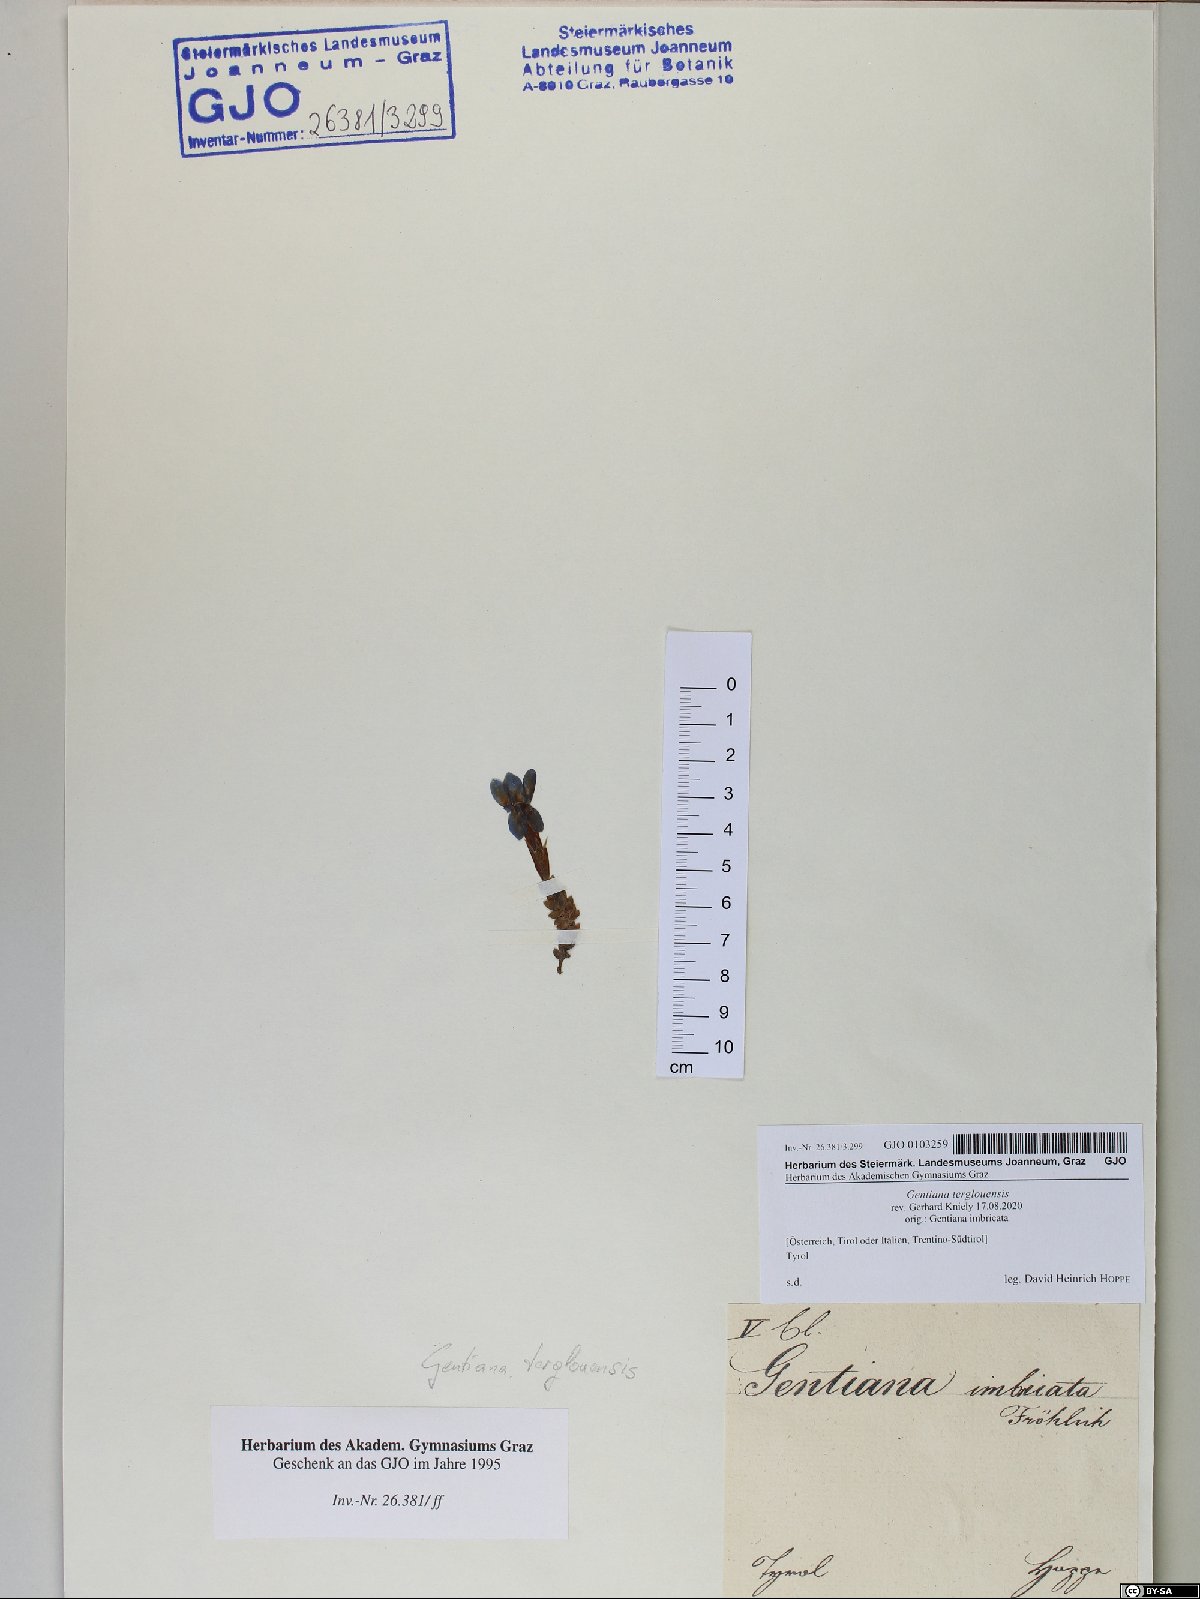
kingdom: Plantae
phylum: Tracheophyta
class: Magnoliopsida
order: Gentianales
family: Gentianaceae
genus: Gentiana
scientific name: Gentiana terglouensis
